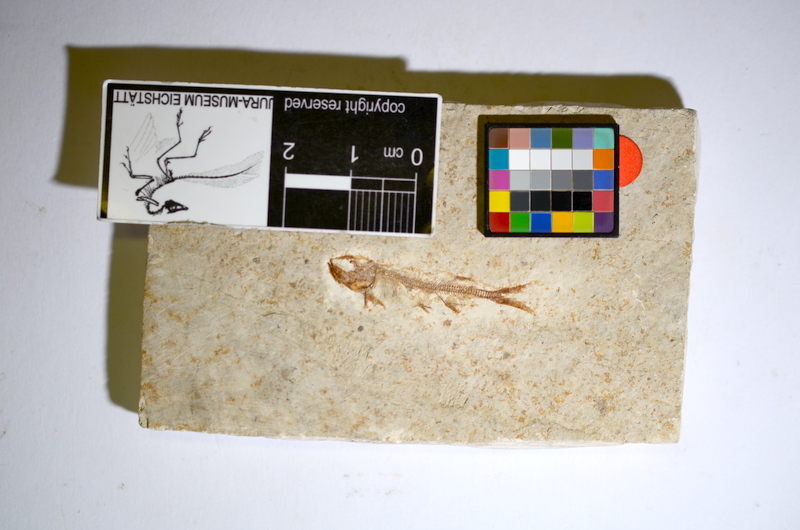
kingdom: Animalia
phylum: Chordata
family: Allothrissopidae
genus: Allothrissops
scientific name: Allothrissops mesogaster
